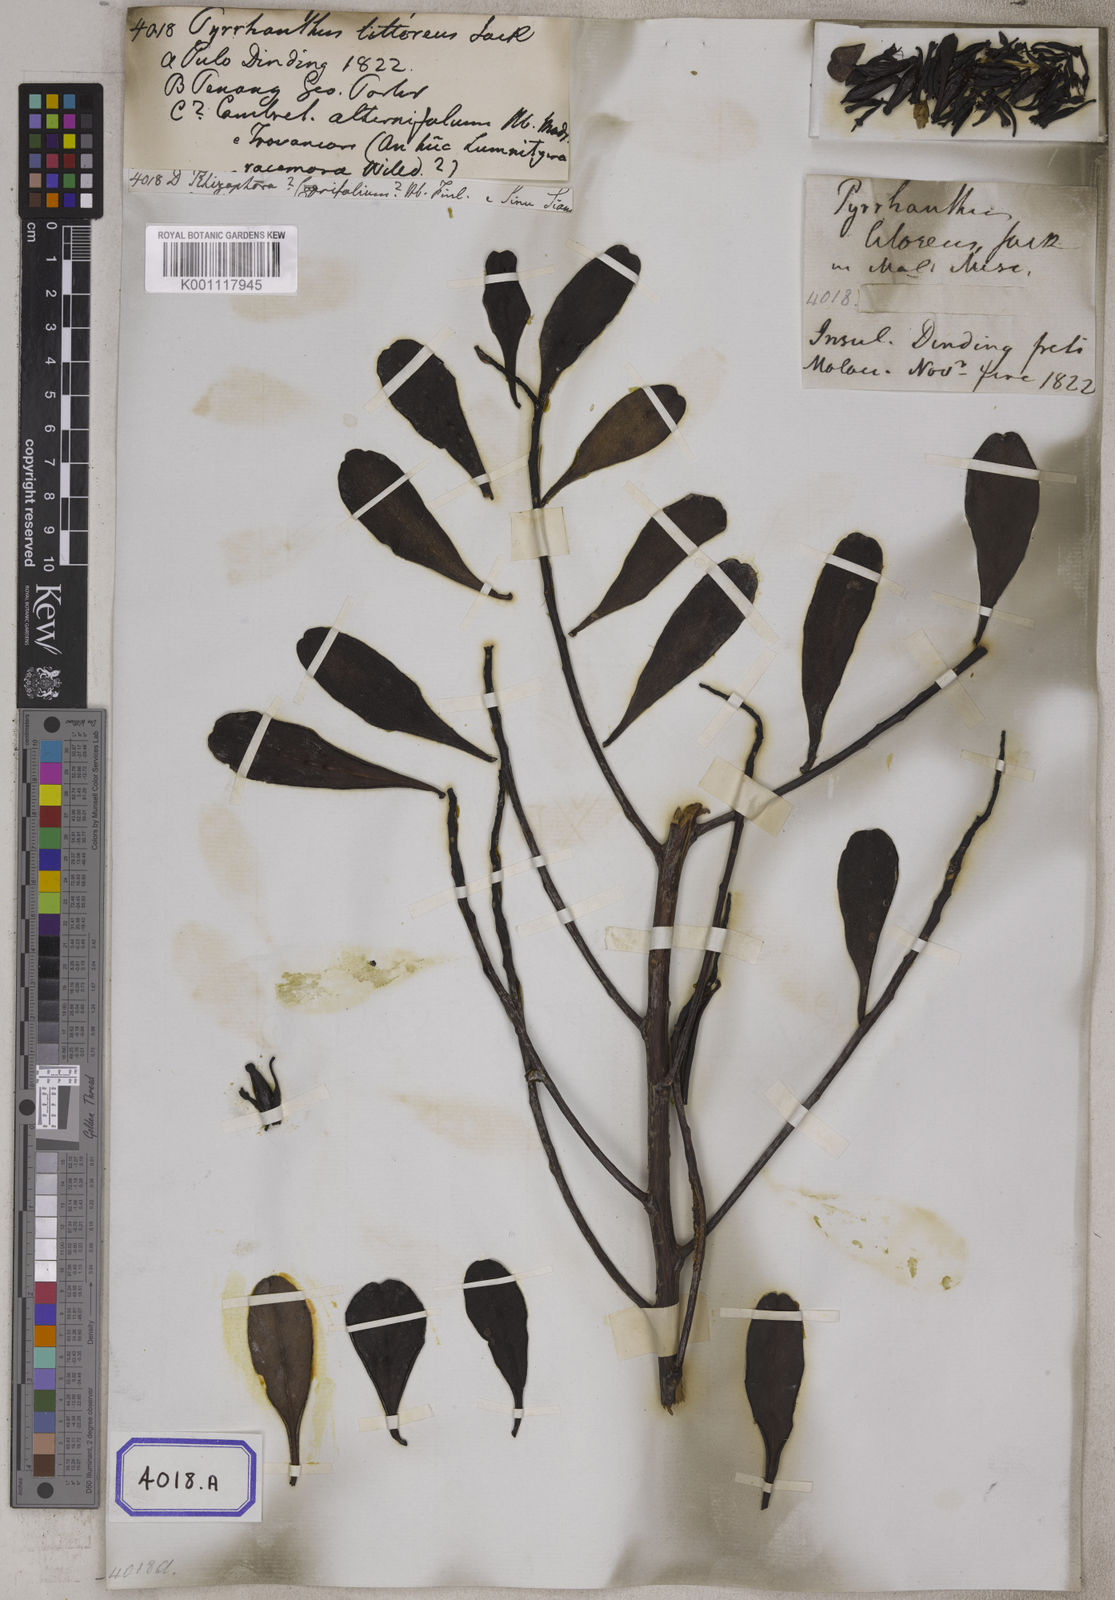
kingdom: Plantae
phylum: Tracheophyta
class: Magnoliopsida
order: Myrtales
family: Combretaceae
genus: Lumnitzera
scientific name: Lumnitzera littorea
